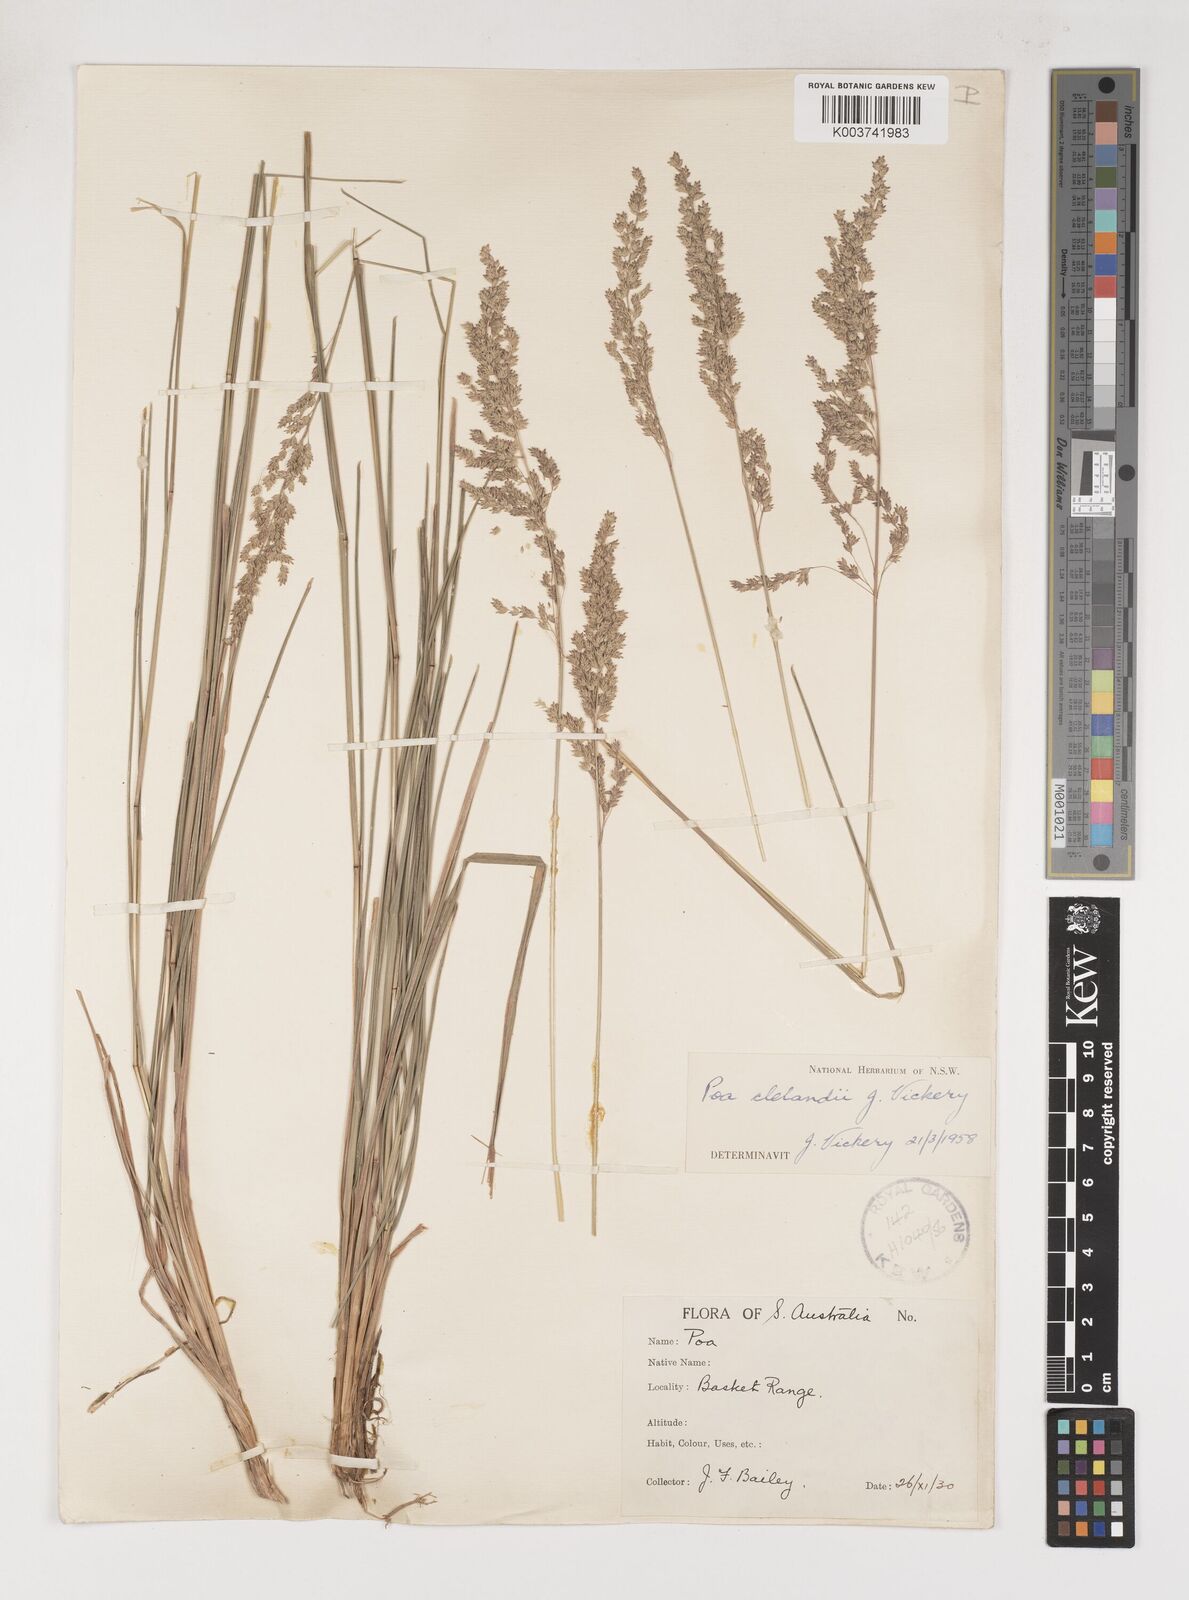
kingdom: Plantae
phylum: Tracheophyta
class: Liliopsida
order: Poales
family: Poaceae
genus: Poa
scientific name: Poa clelandii
